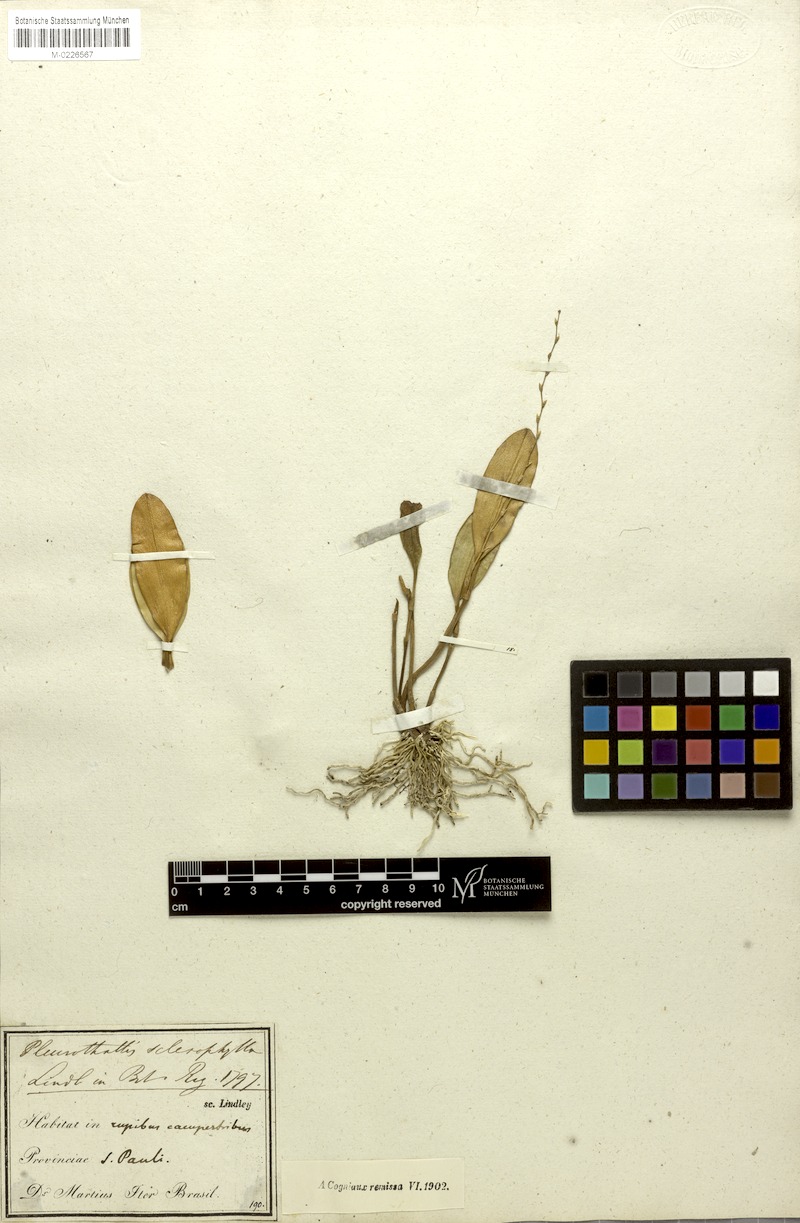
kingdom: Plantae
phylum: Tracheophyta
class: Liliopsida
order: Asparagales
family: Orchidaceae
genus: Stelis
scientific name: Stelis sclerophylla
